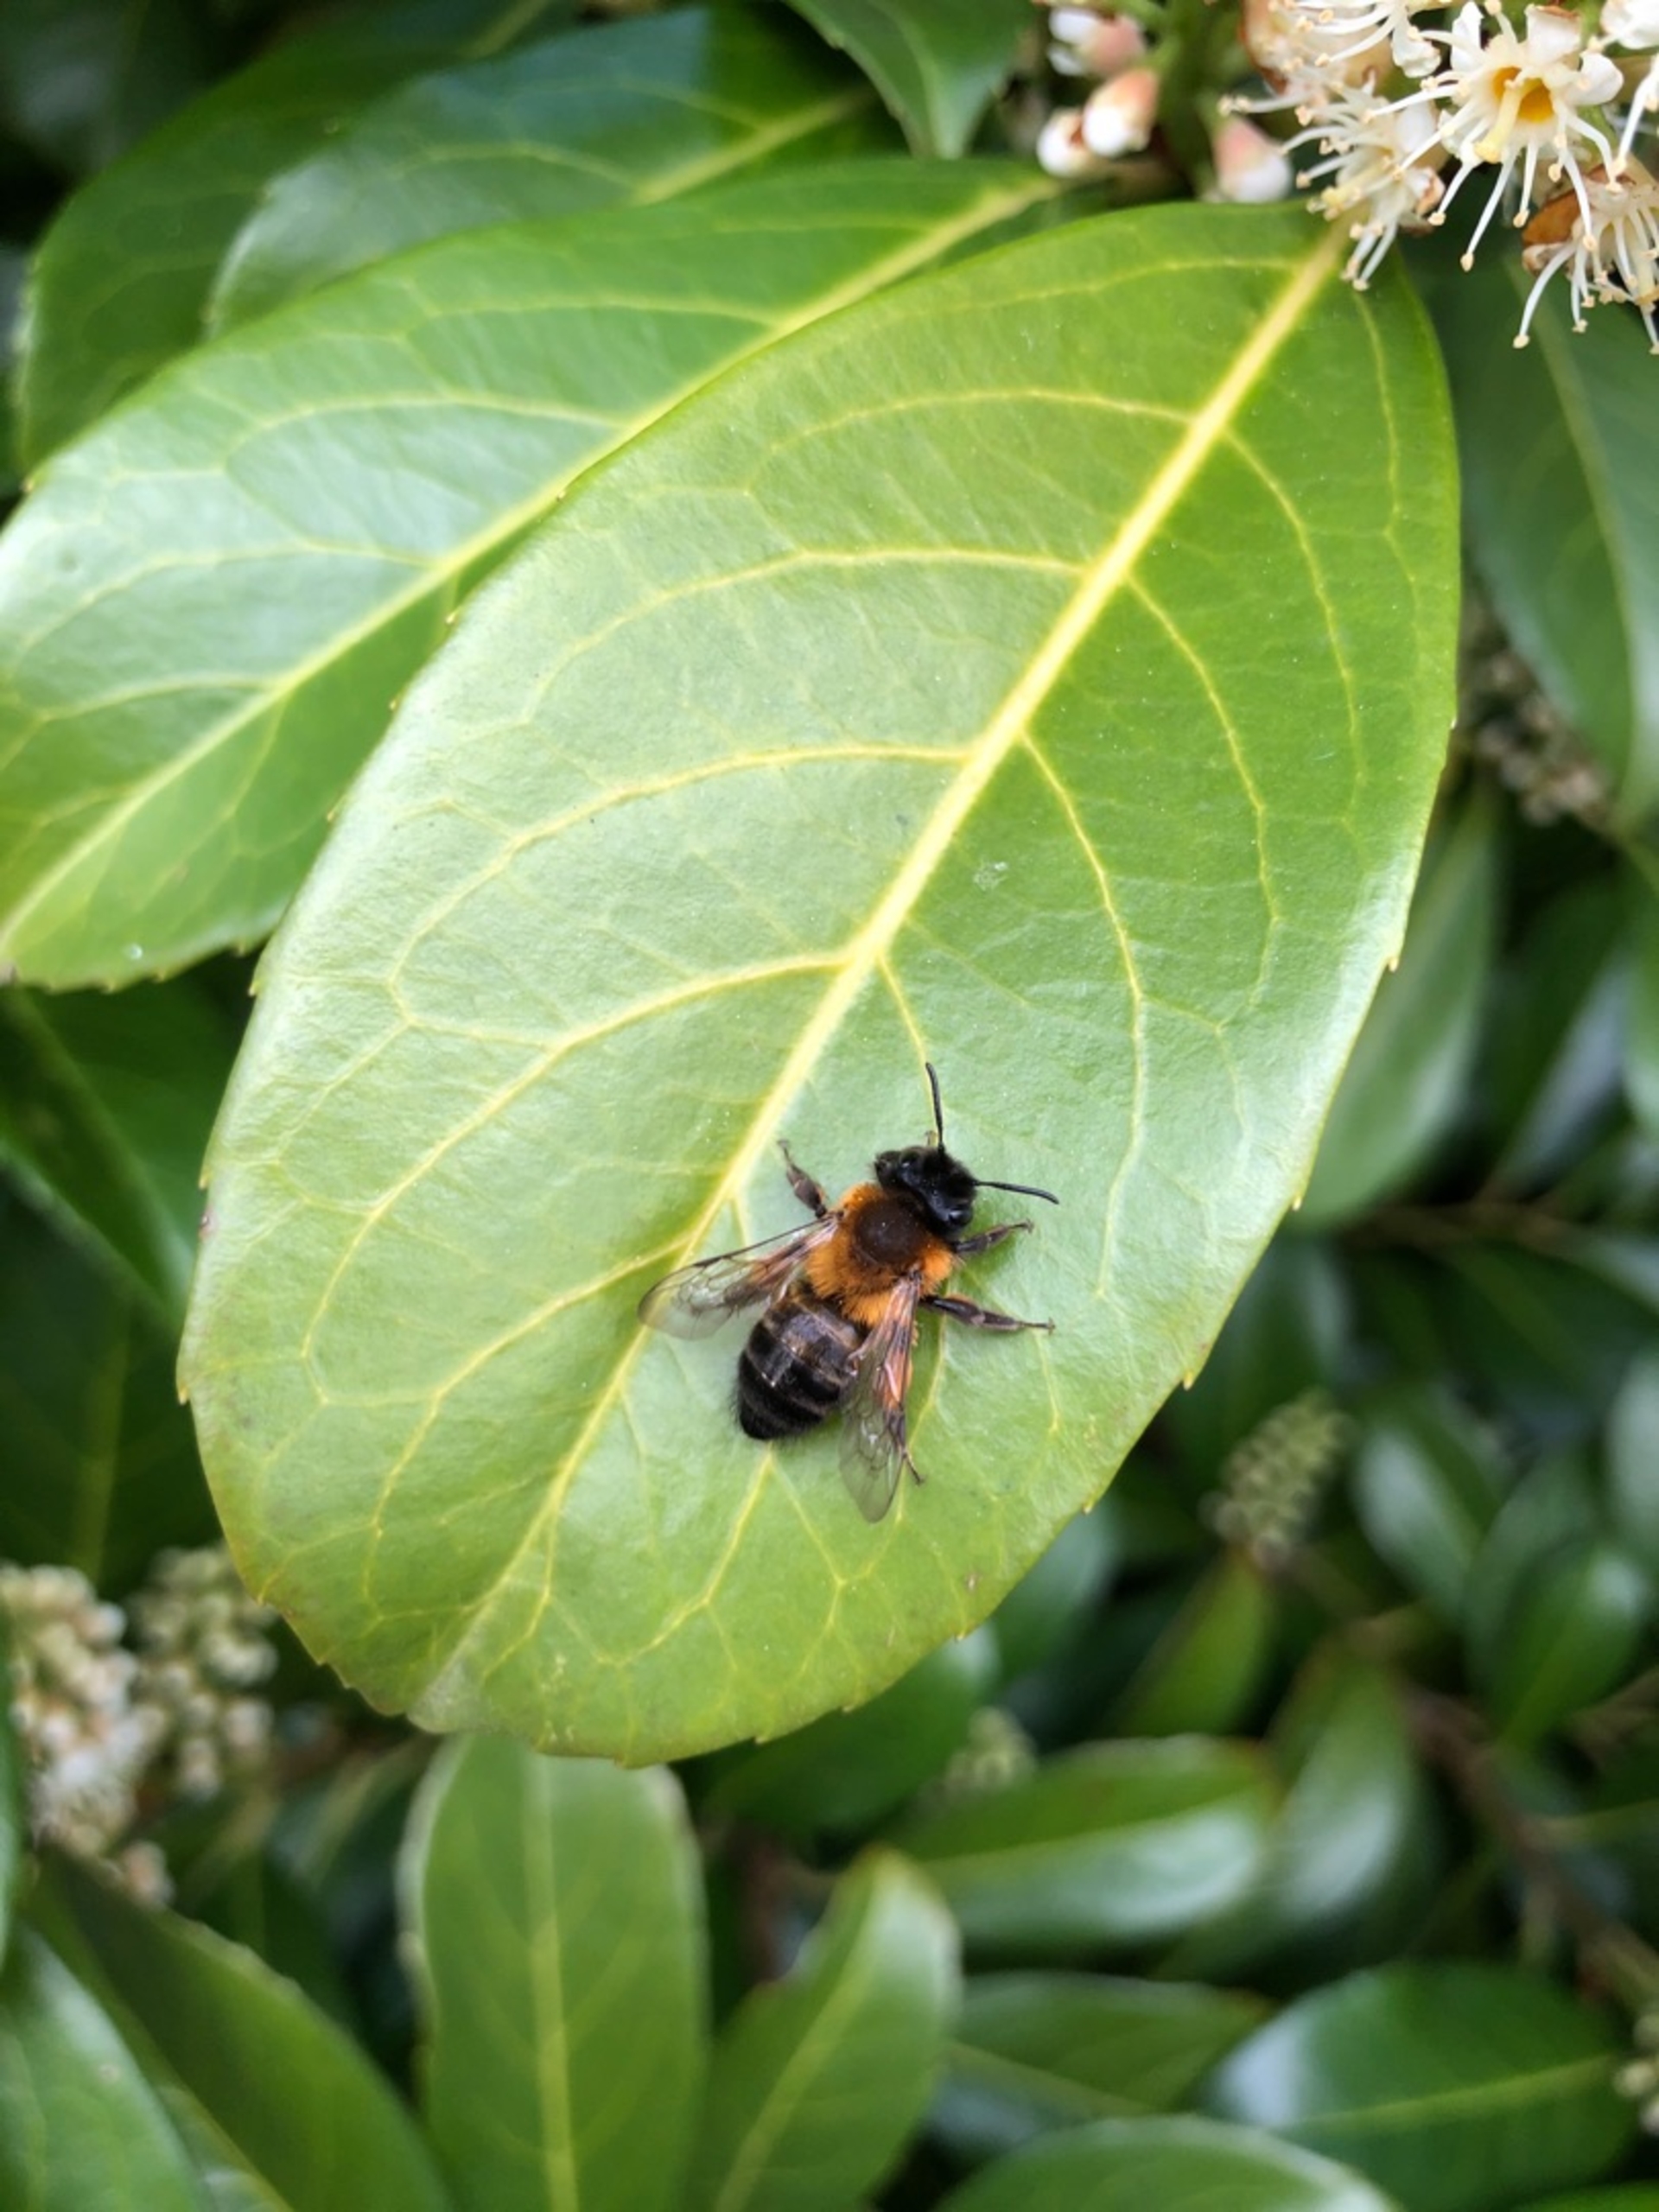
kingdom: Animalia
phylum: Arthropoda
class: Insecta
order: Hymenoptera
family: Andrenidae
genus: Andrena
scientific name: Andrena
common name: Jordbier
